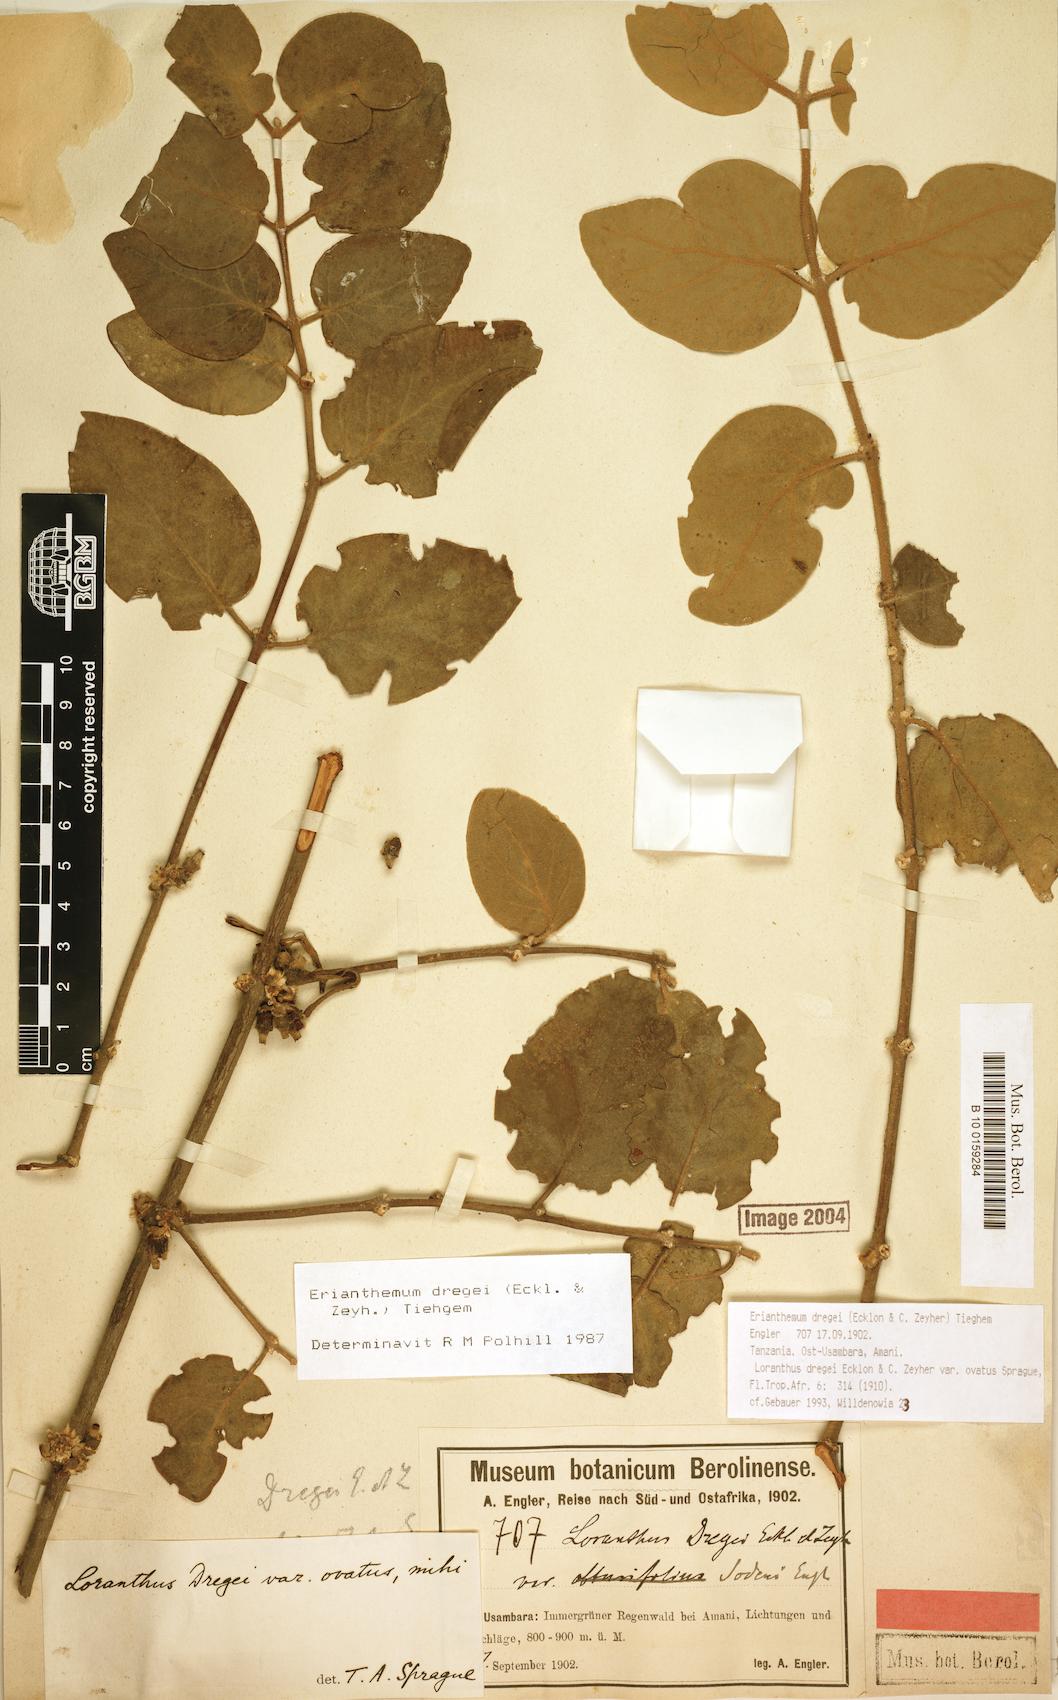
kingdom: Plantae
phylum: Tracheophyta
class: Magnoliopsida
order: Santalales
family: Loranthaceae
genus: Erianthemum
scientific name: Erianthemum dregei
